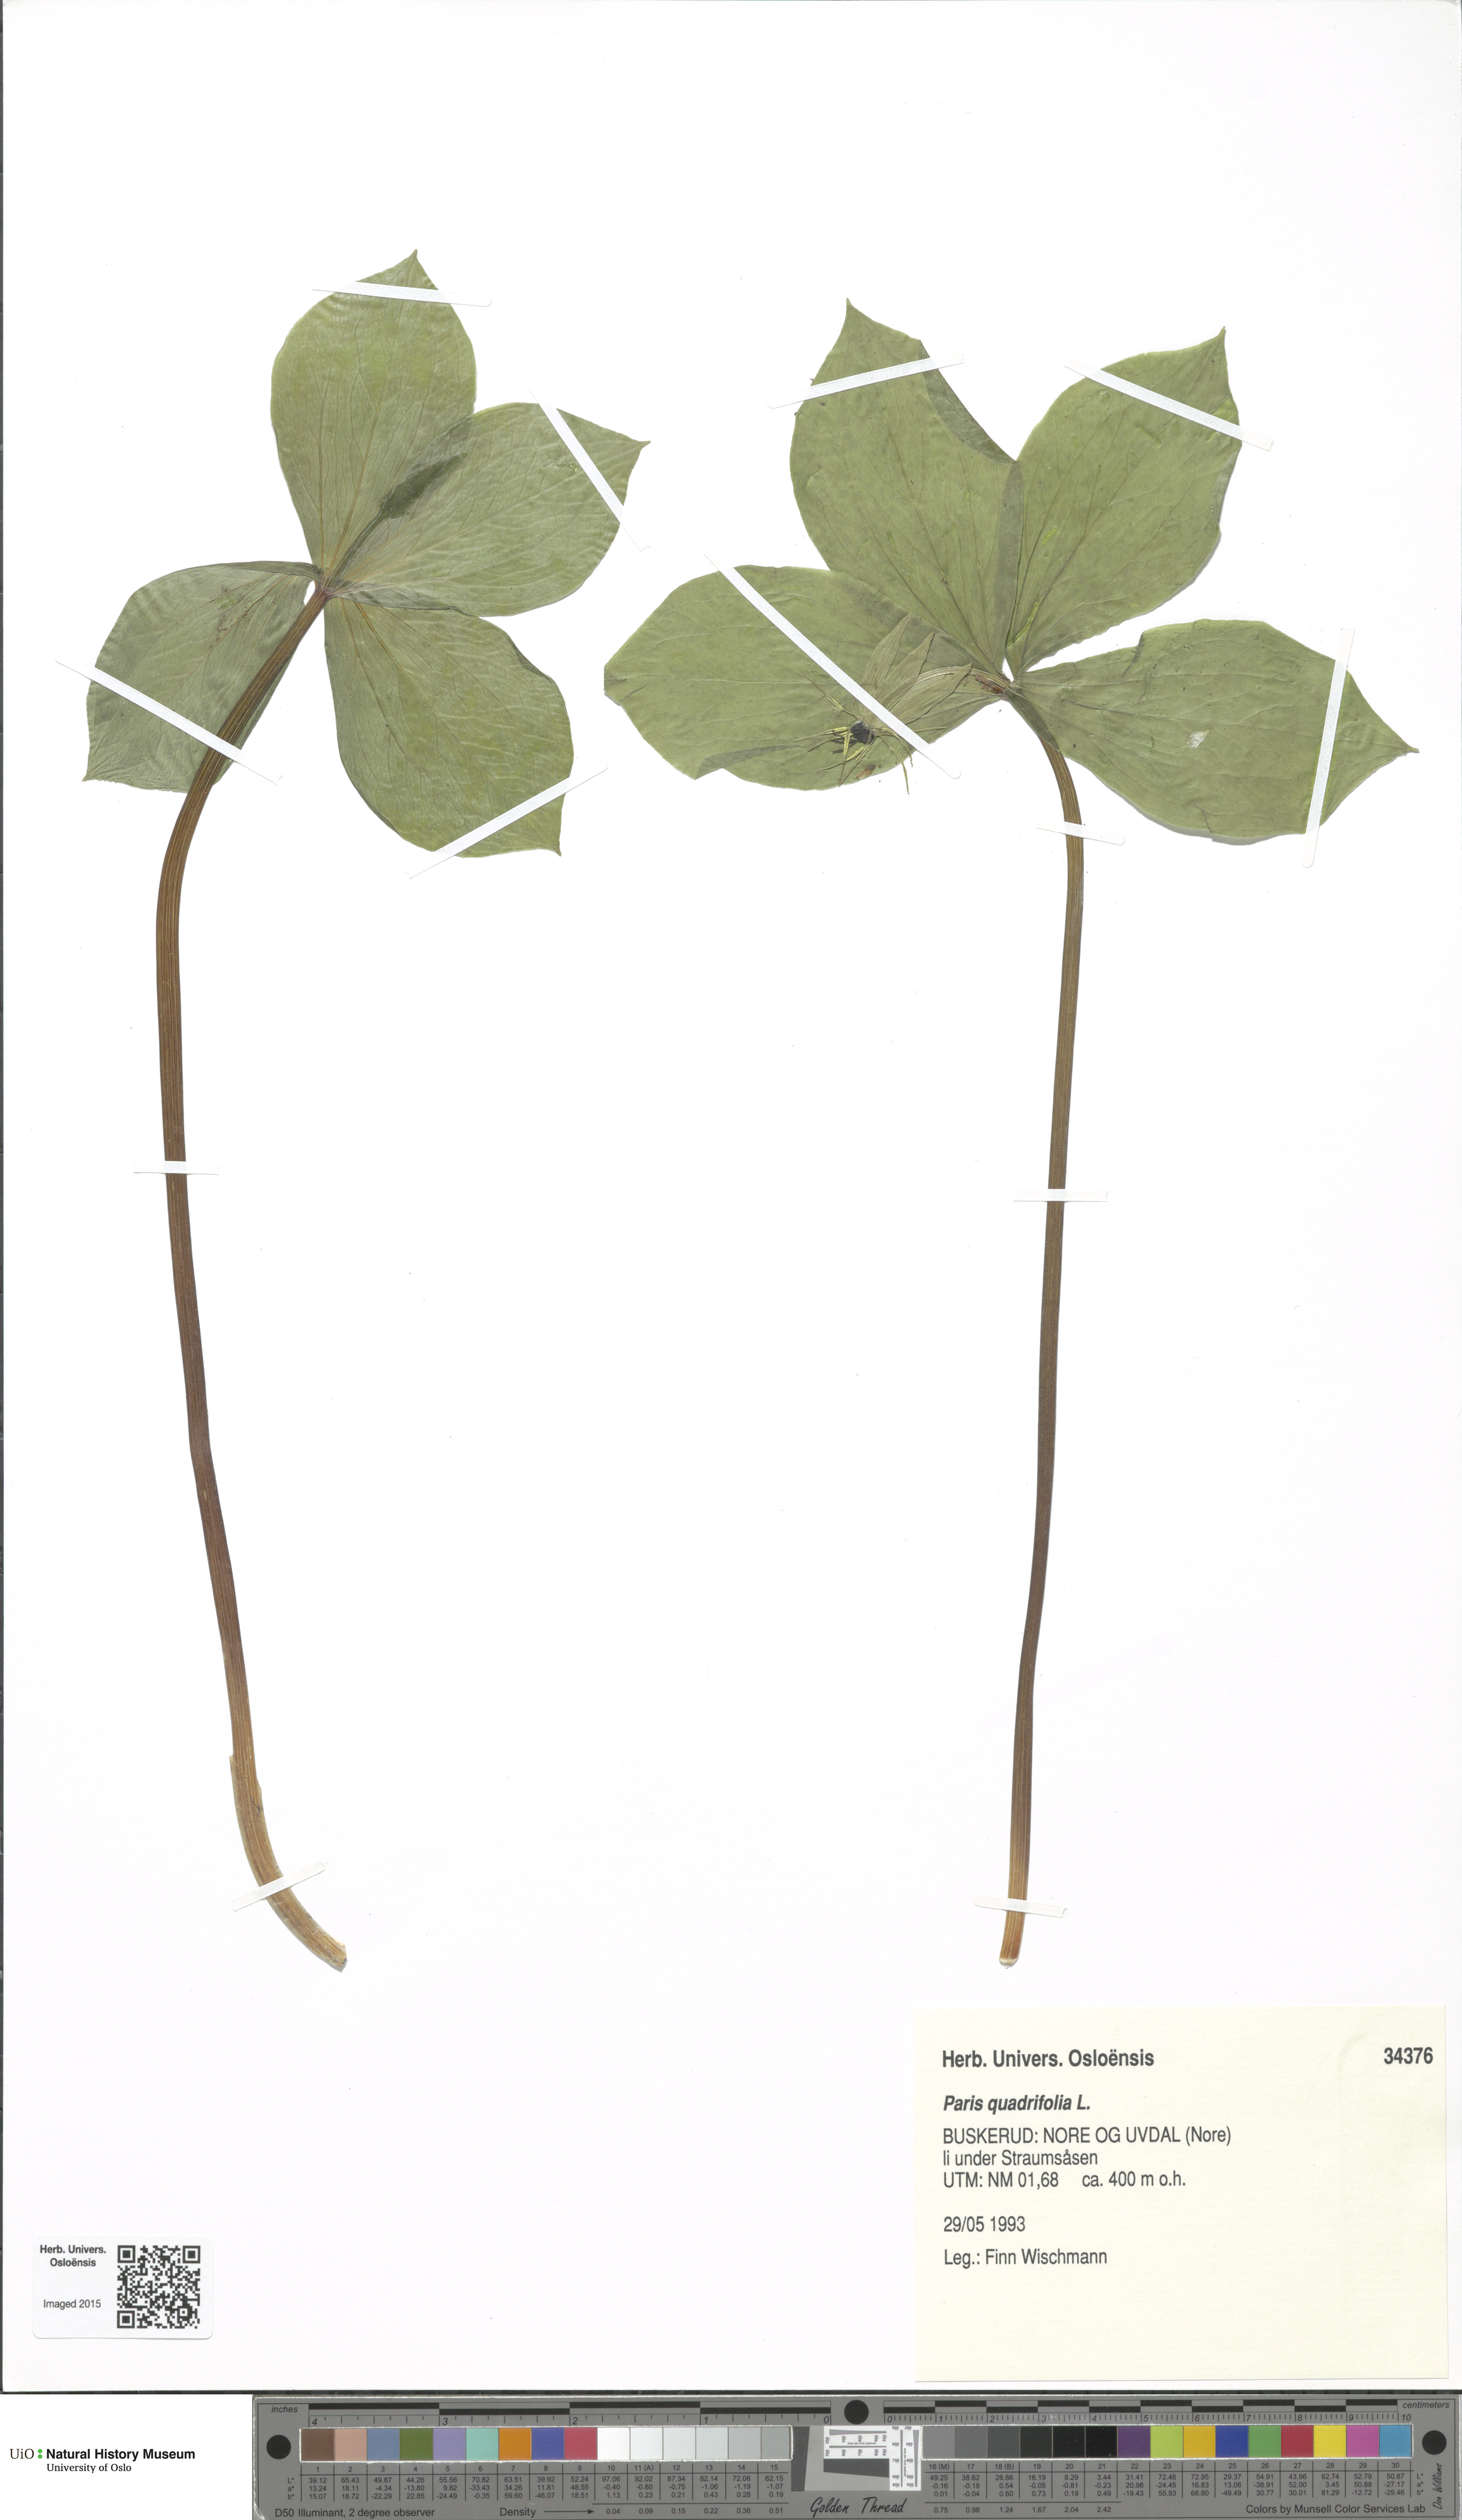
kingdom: Plantae
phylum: Tracheophyta
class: Liliopsida
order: Liliales
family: Melanthiaceae
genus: Paris
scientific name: Paris quadrifolia
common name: Herb-paris
